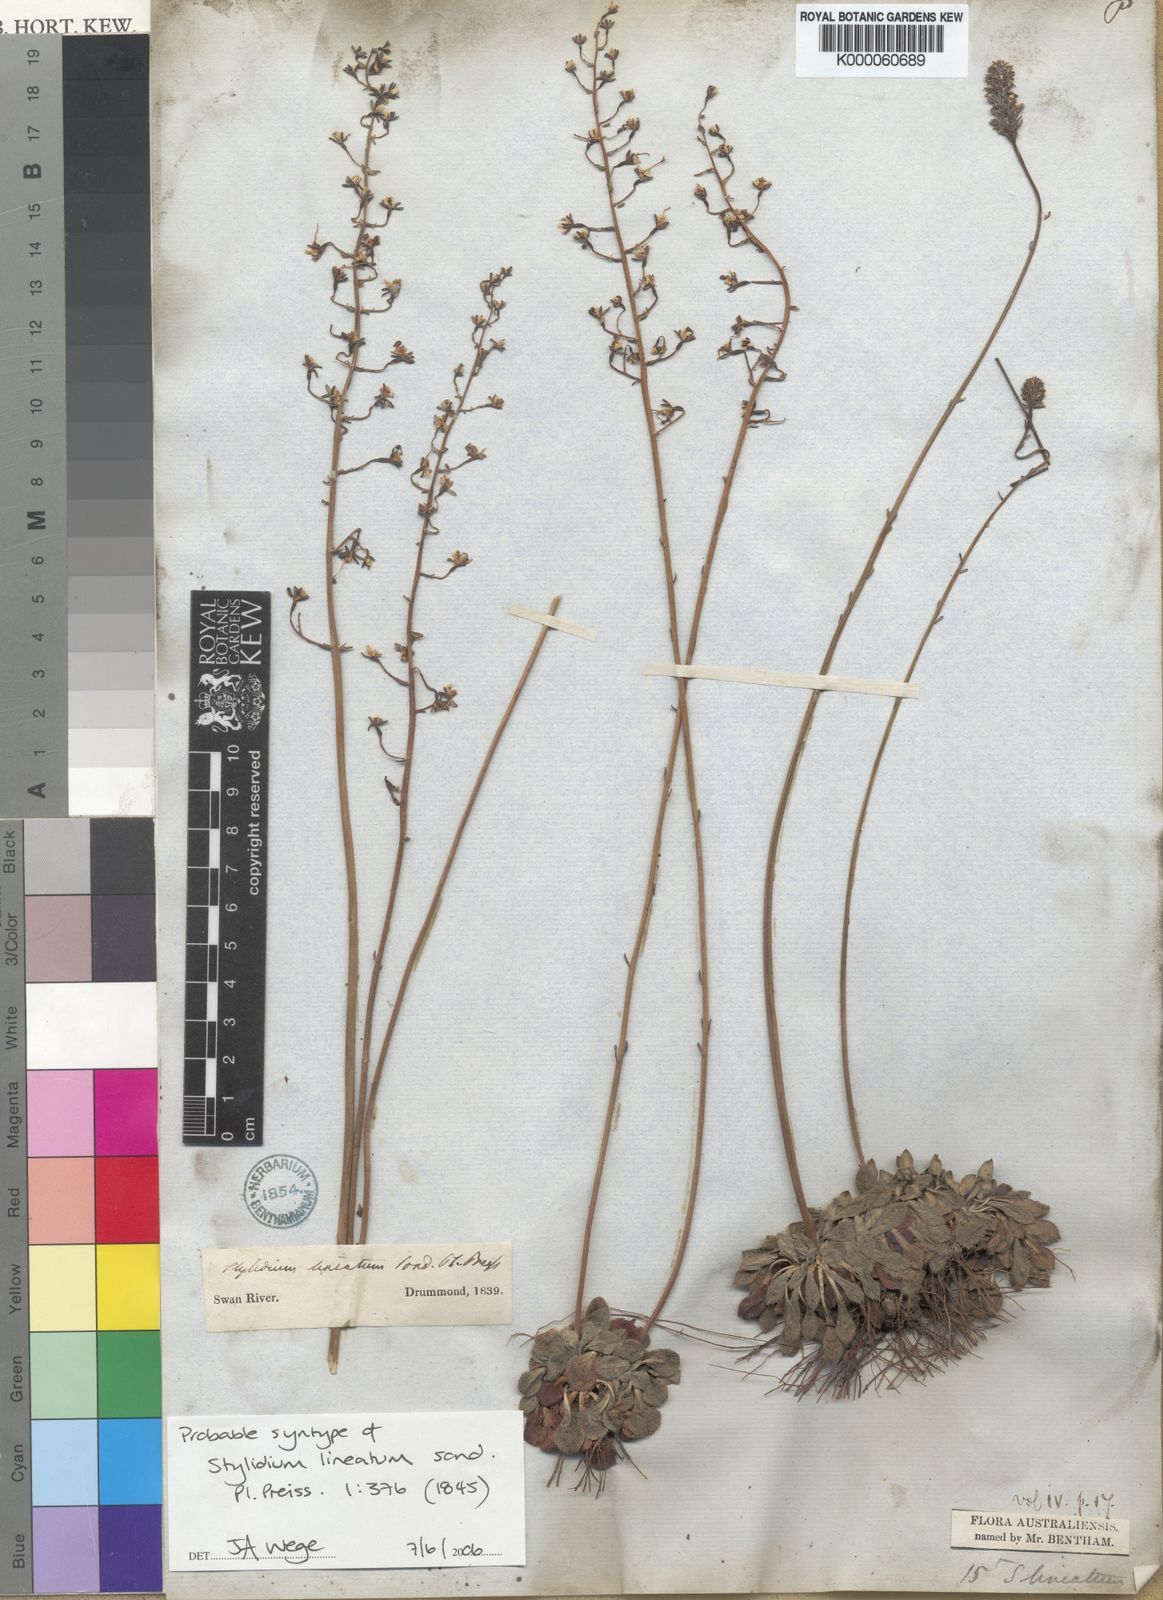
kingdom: Plantae
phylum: Tracheophyta
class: Magnoliopsida
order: Asterales
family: Stylidiaceae
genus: Stylidium
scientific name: Stylidium lineatum
